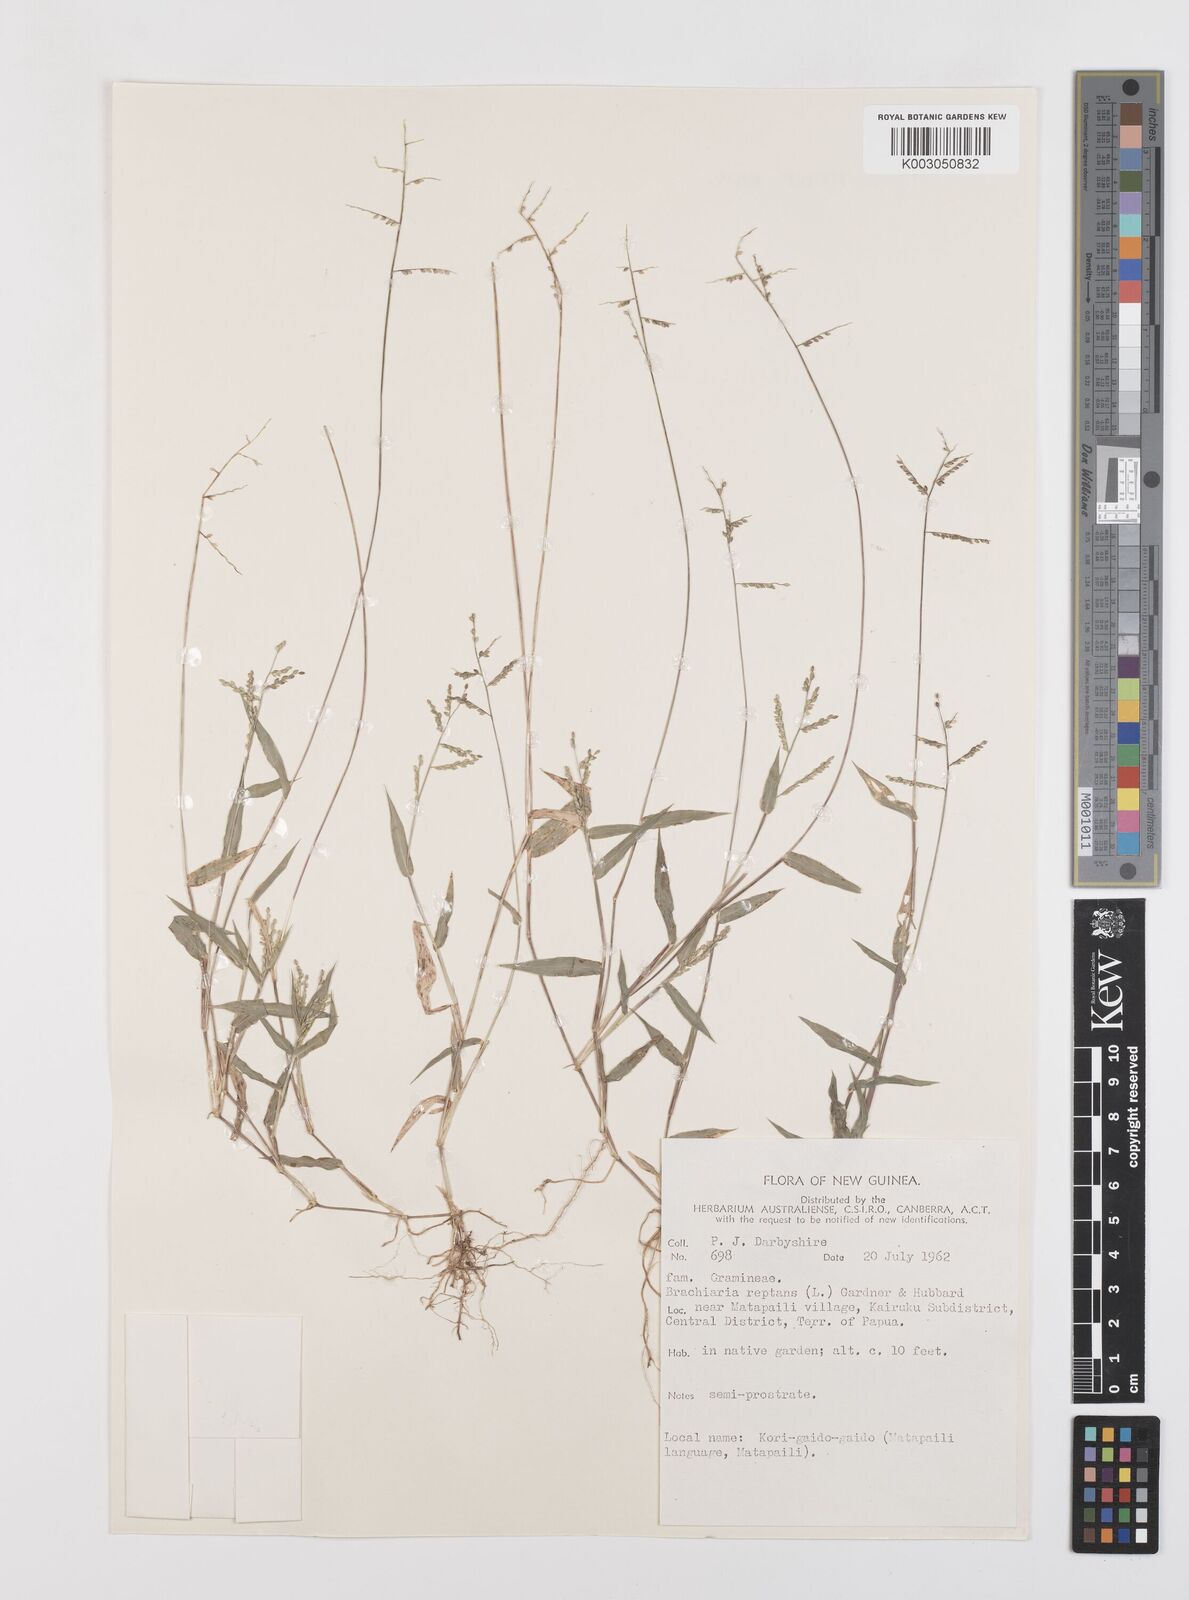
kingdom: Plantae
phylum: Tracheophyta
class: Liliopsida
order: Poales
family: Poaceae
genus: Urochloa
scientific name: Urochloa reptans
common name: Sprawling signalgrass
